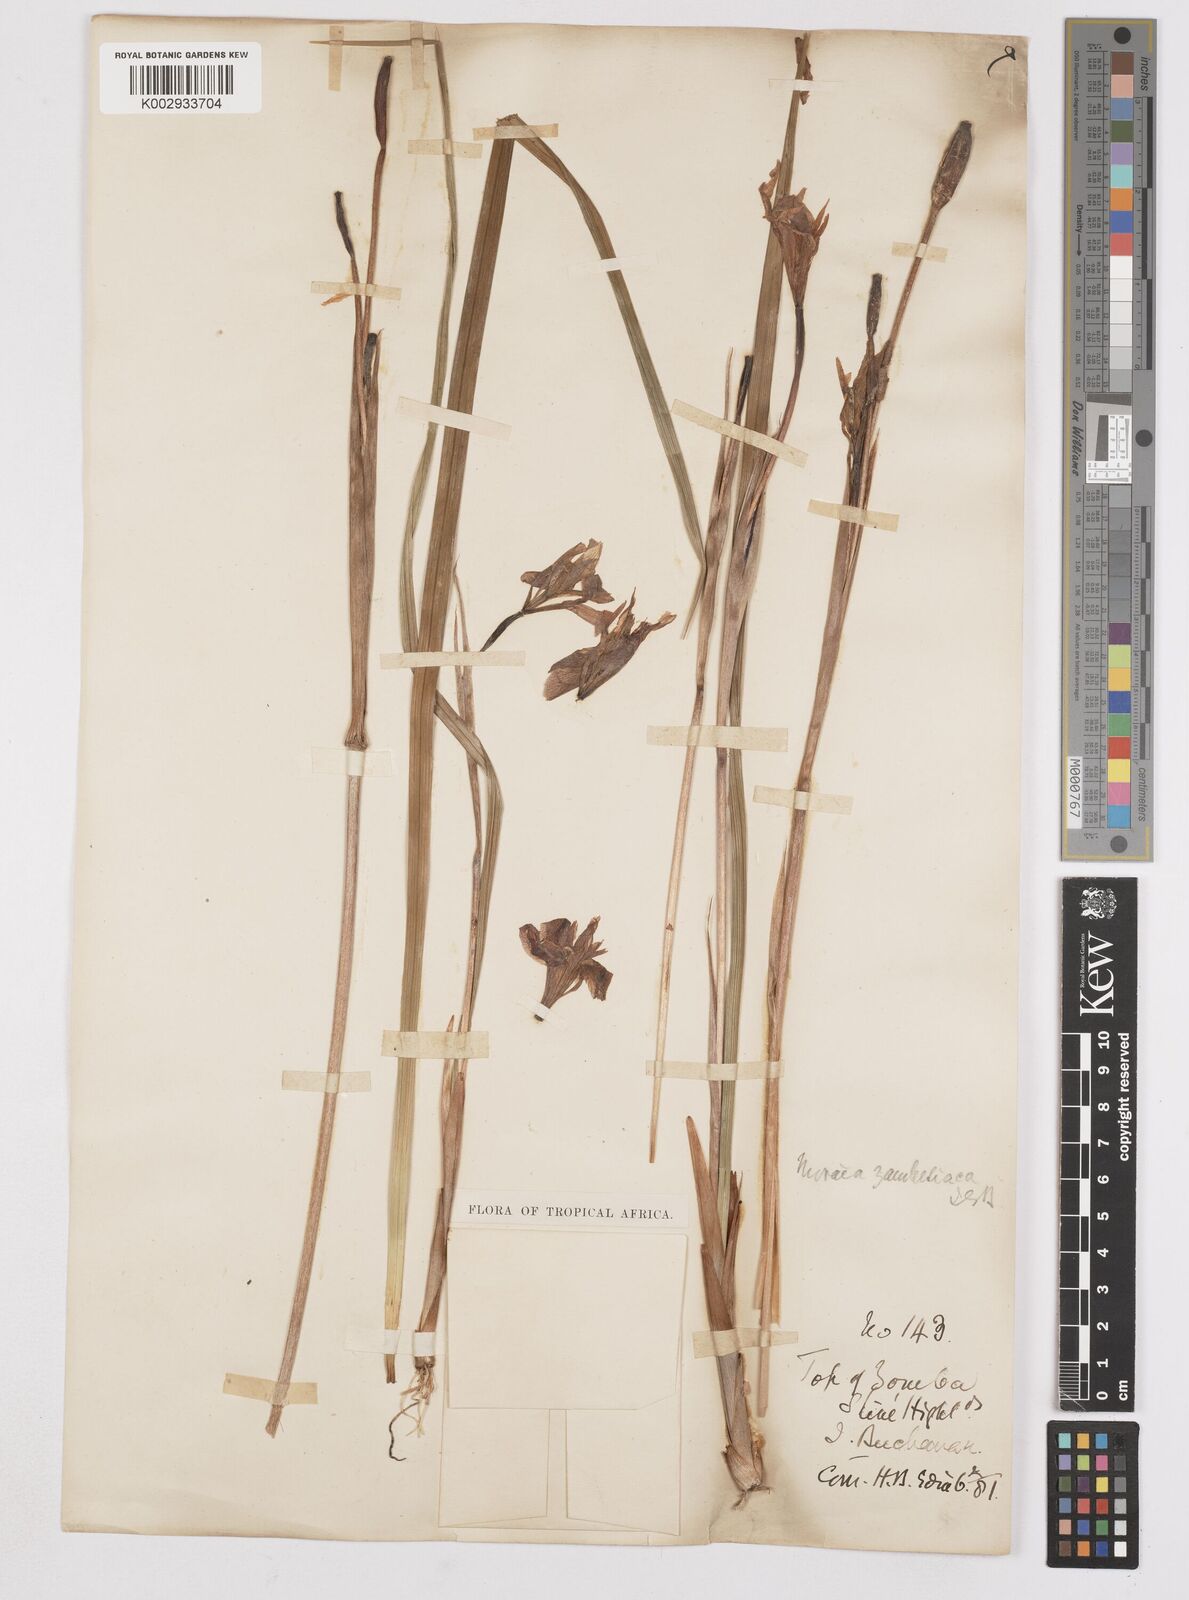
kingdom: Plantae
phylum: Tracheophyta
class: Liliopsida
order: Asparagales
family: Iridaceae
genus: Moraea
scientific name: Moraea
